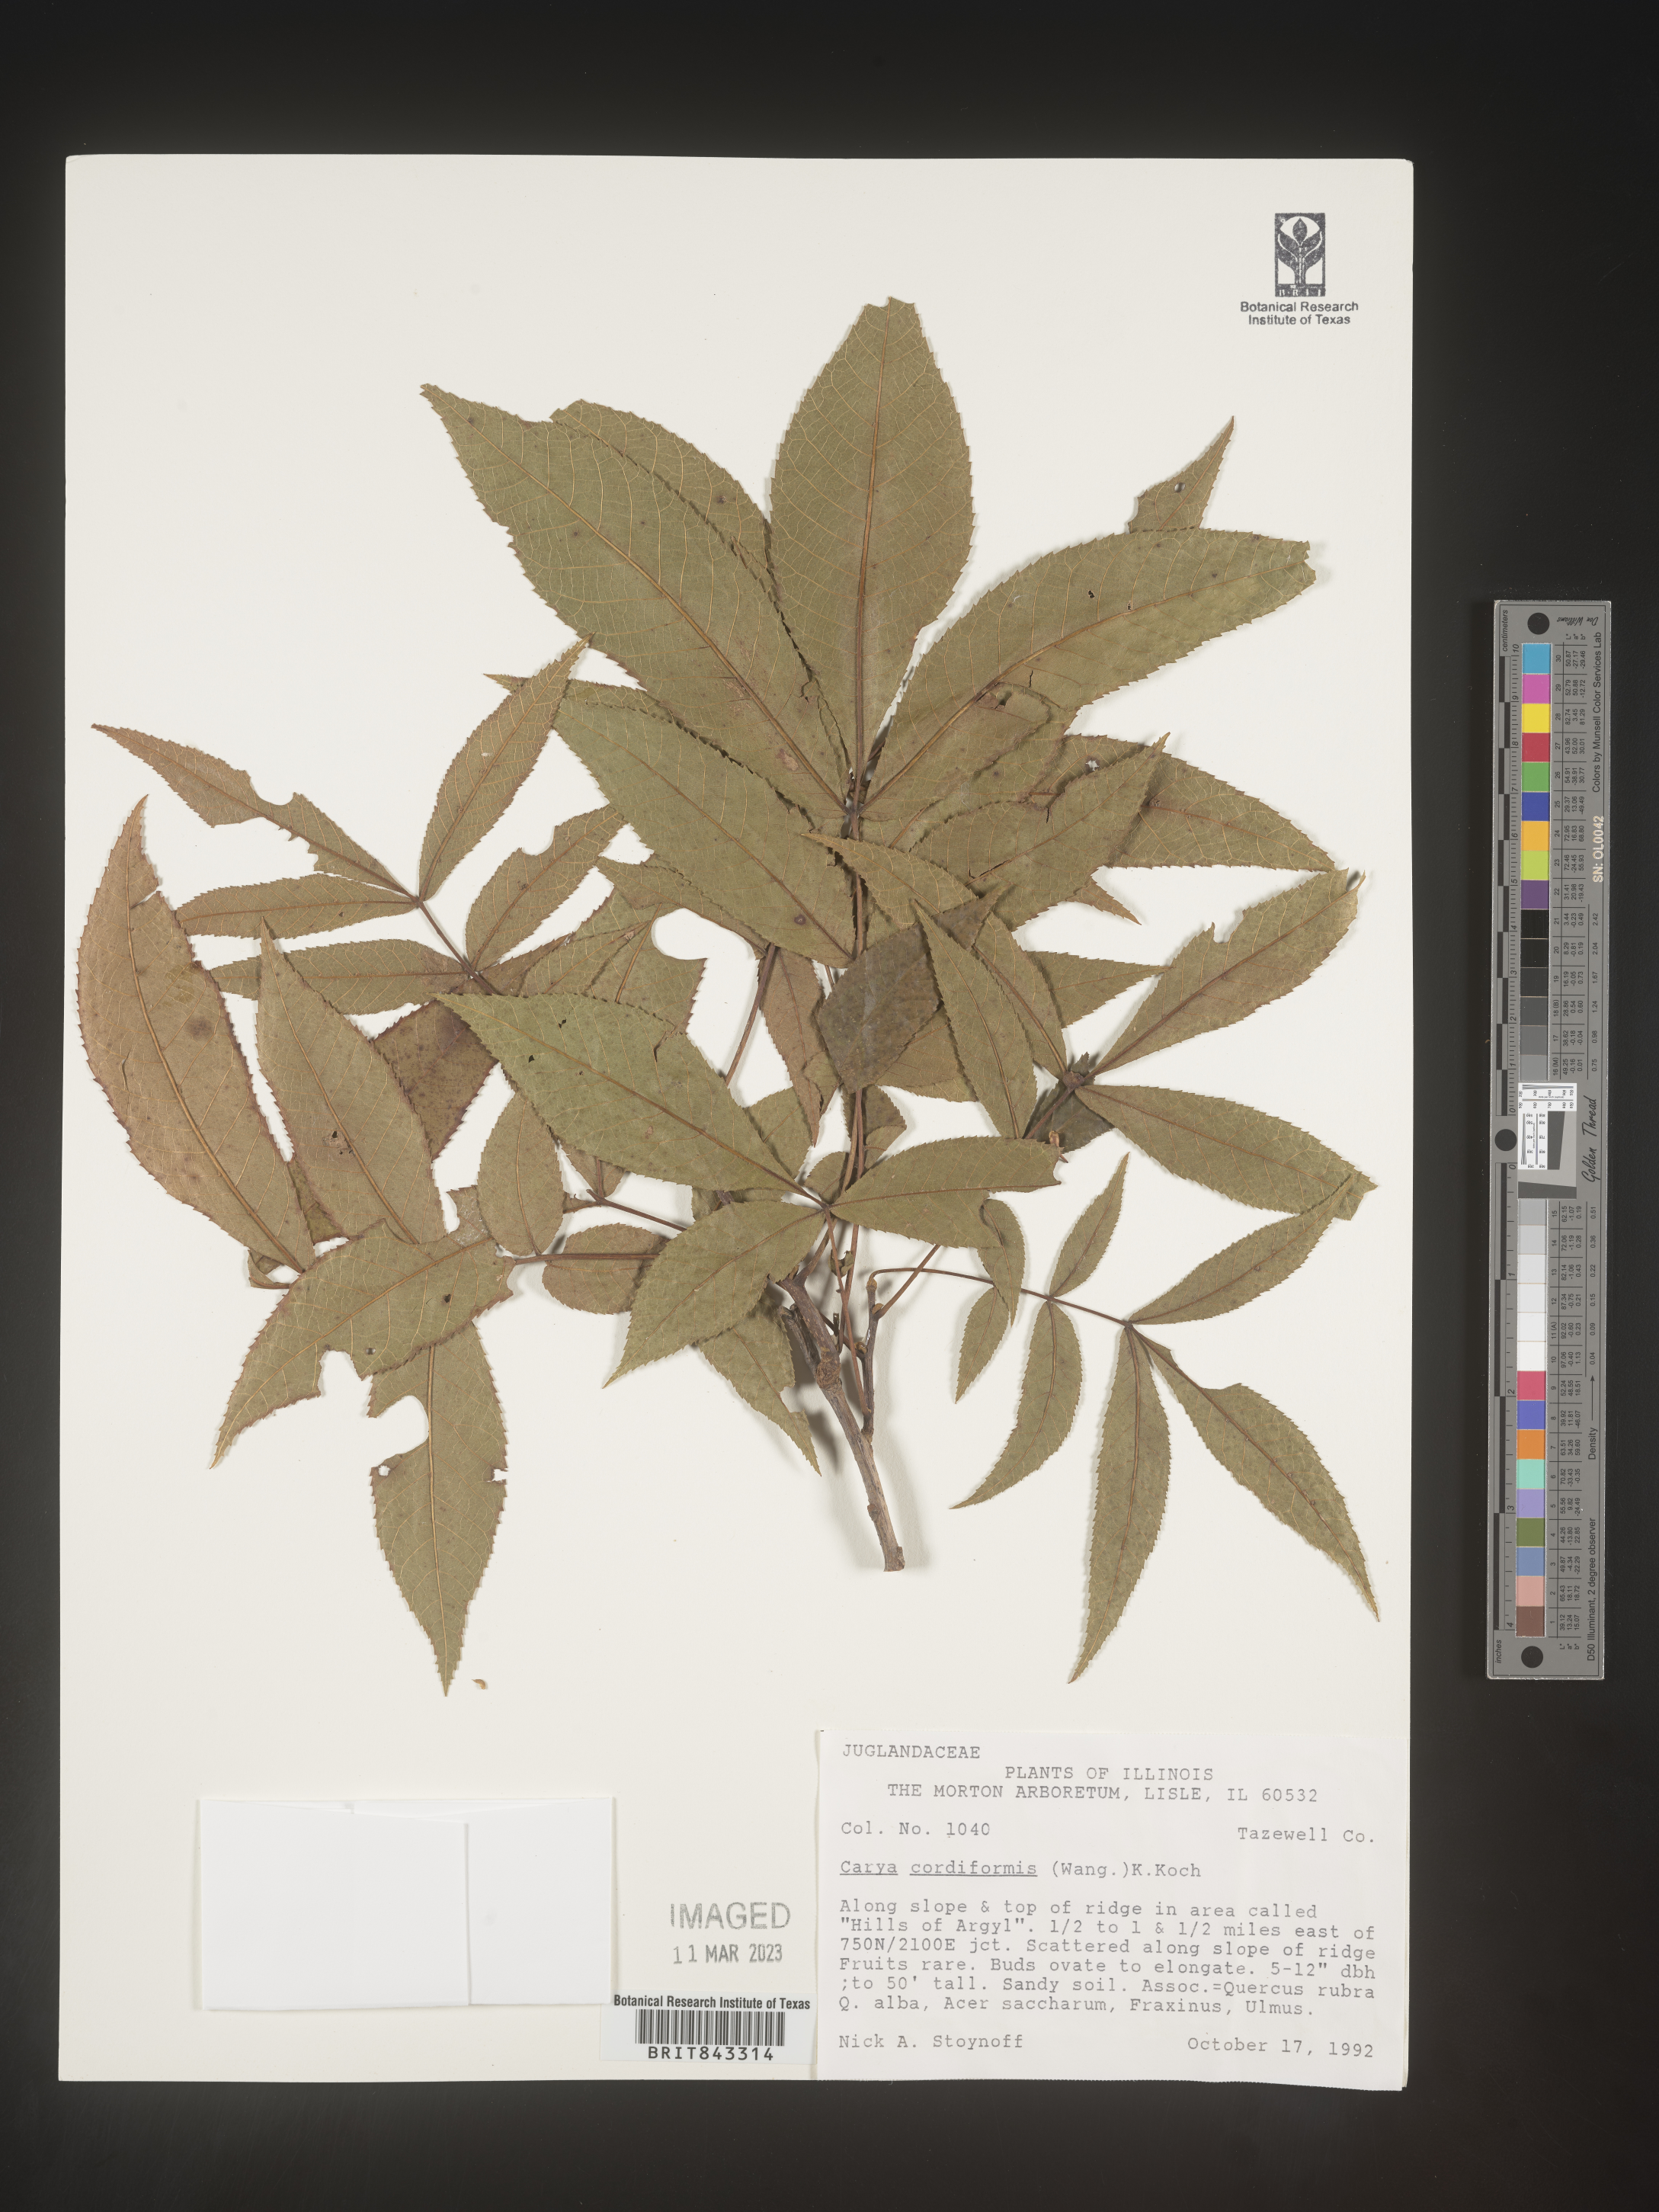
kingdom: Plantae
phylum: Tracheophyta
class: Magnoliopsida
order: Fagales
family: Juglandaceae
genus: Carya
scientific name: Carya cordiformis
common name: Bitternut hickory
